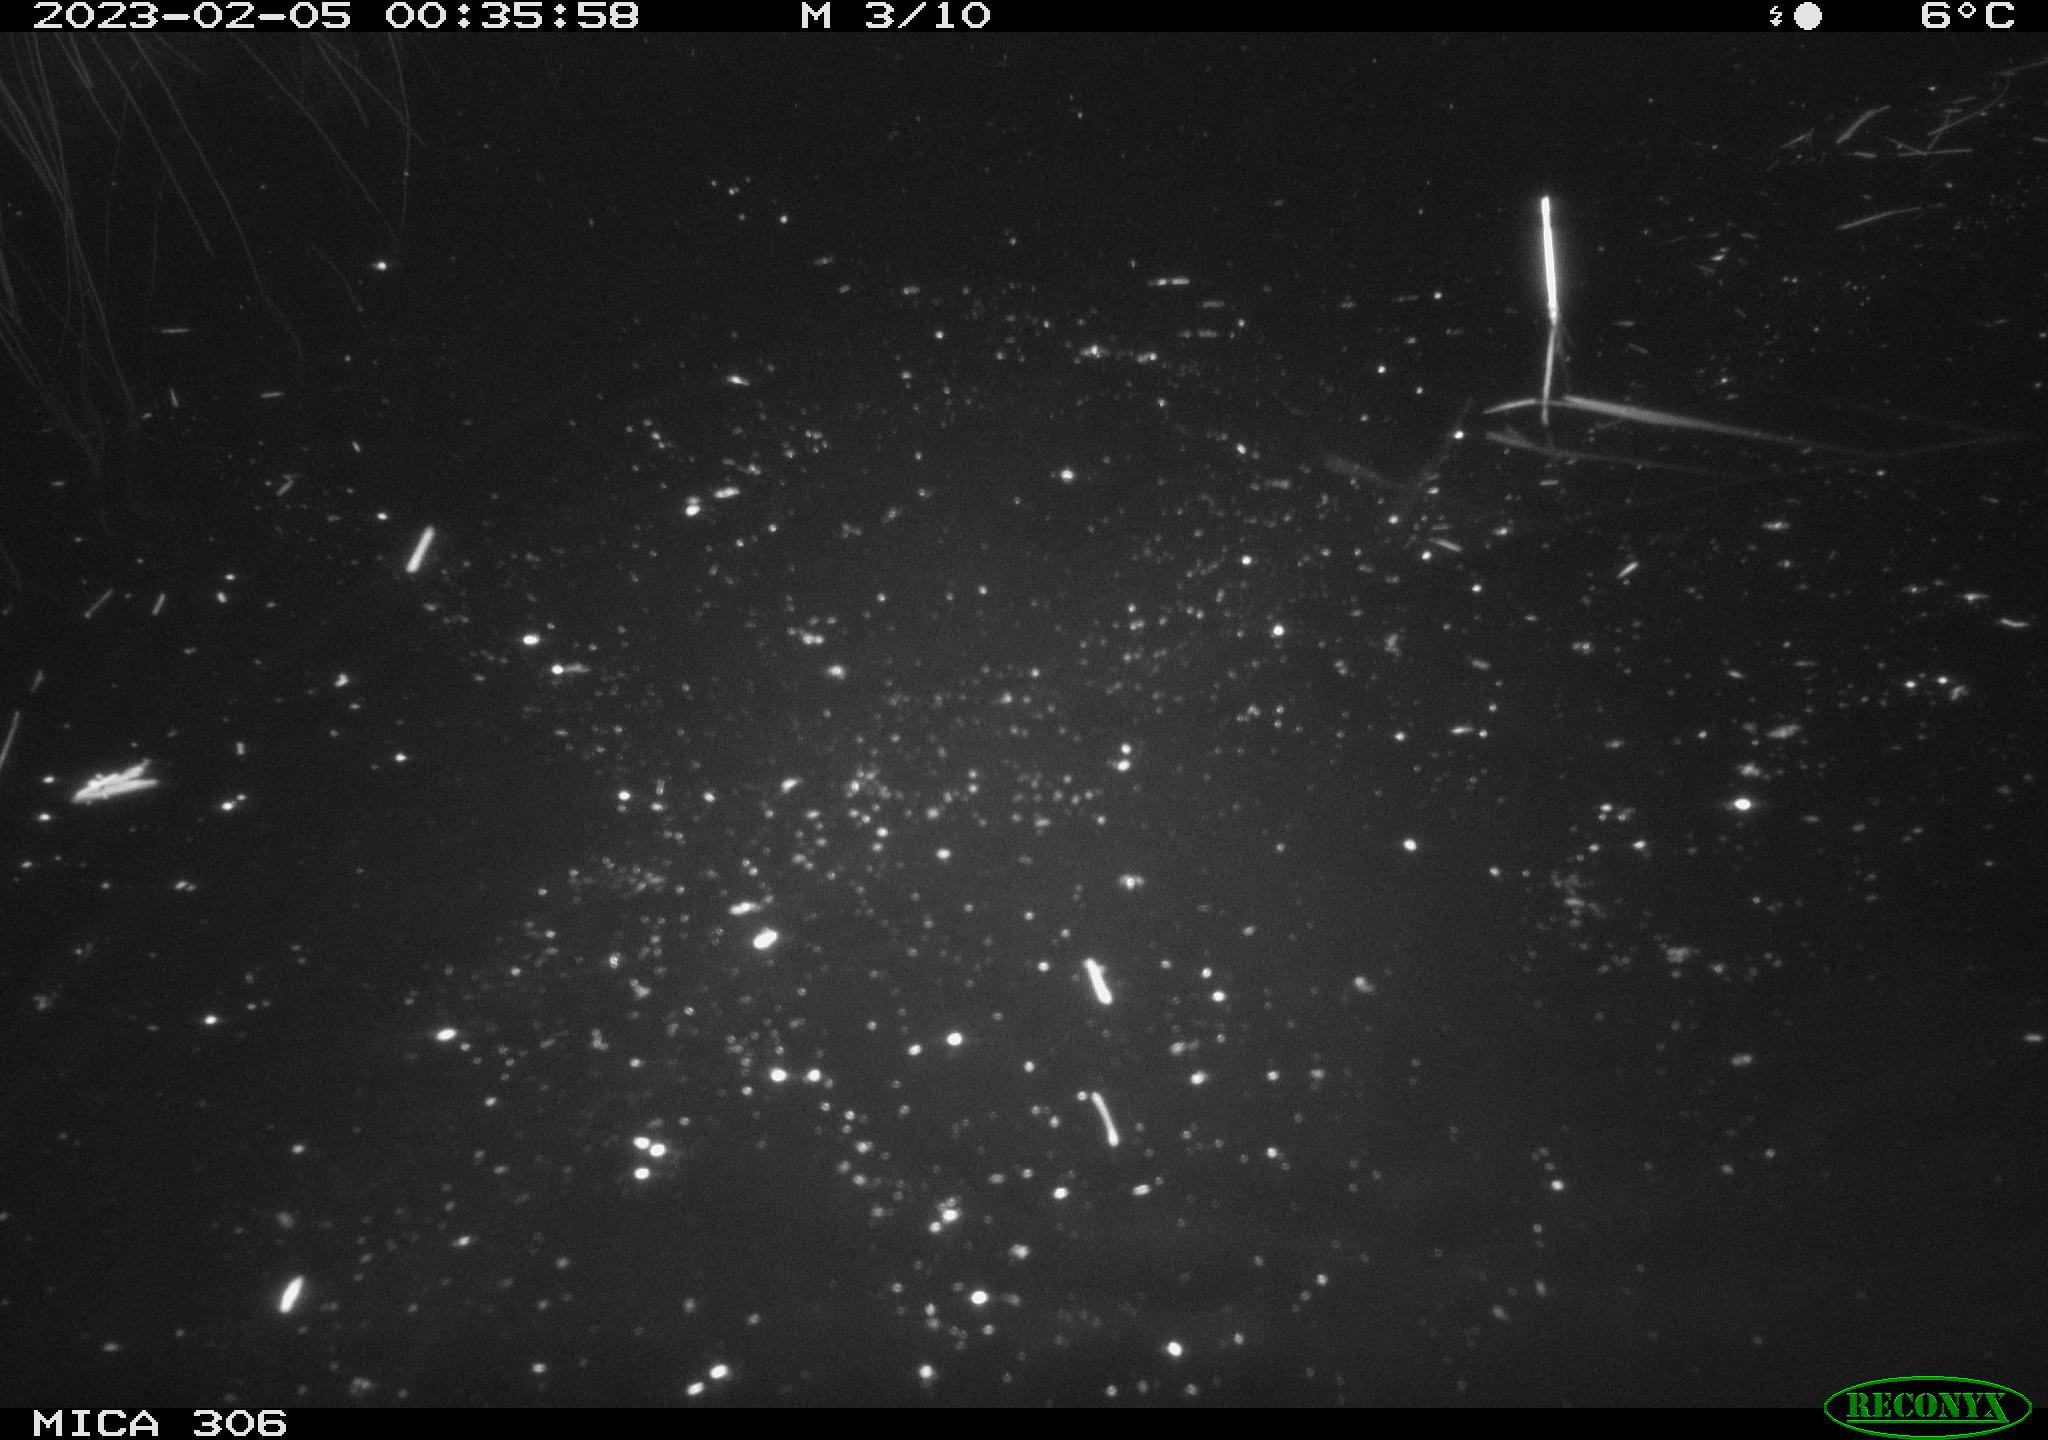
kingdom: Animalia
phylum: Chordata
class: Mammalia
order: Rodentia
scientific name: Rodentia
